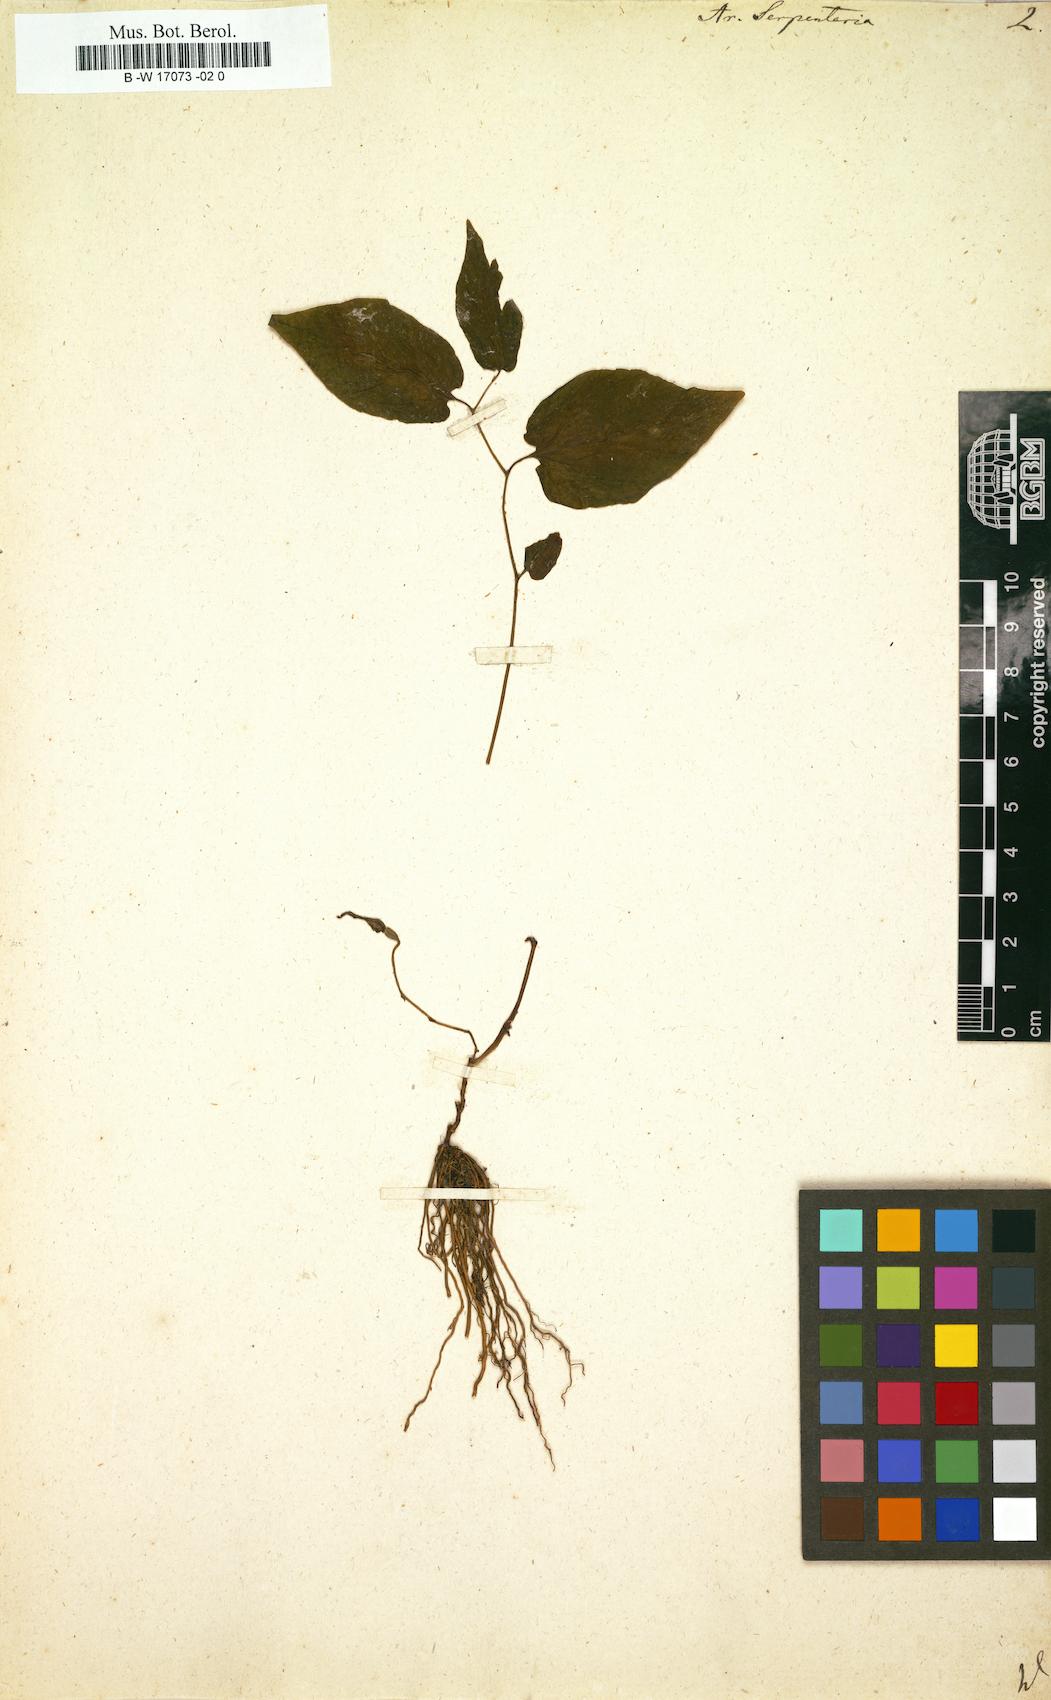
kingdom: Plantae
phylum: Tracheophyta
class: Magnoliopsida
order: Piperales
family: Aristolochiaceae
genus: Endodeca
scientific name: Endodeca serpentaria
